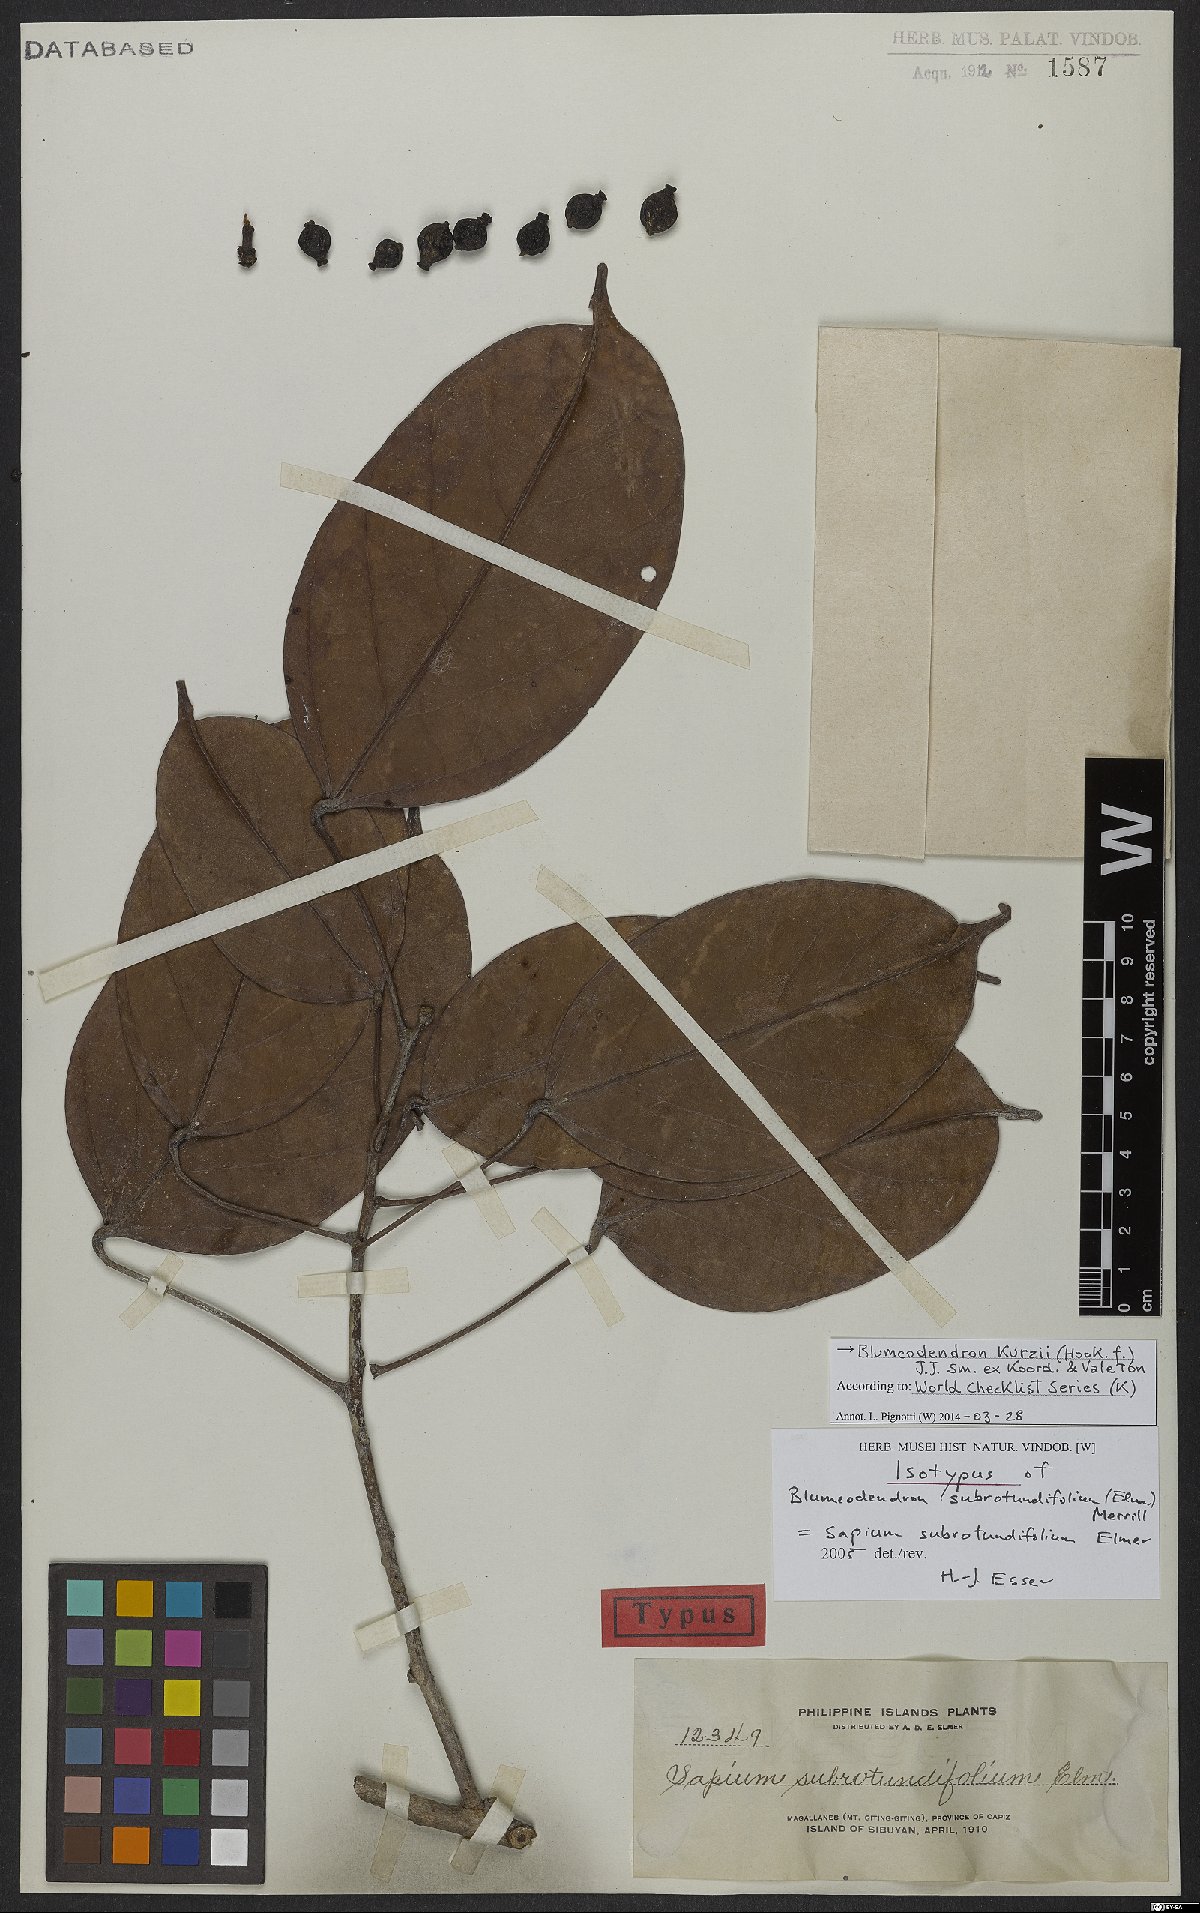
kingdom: Plantae
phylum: Tracheophyta
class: Magnoliopsida
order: Malpighiales
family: Euphorbiaceae
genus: Blumeodendron
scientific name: Blumeodendron kurzii
